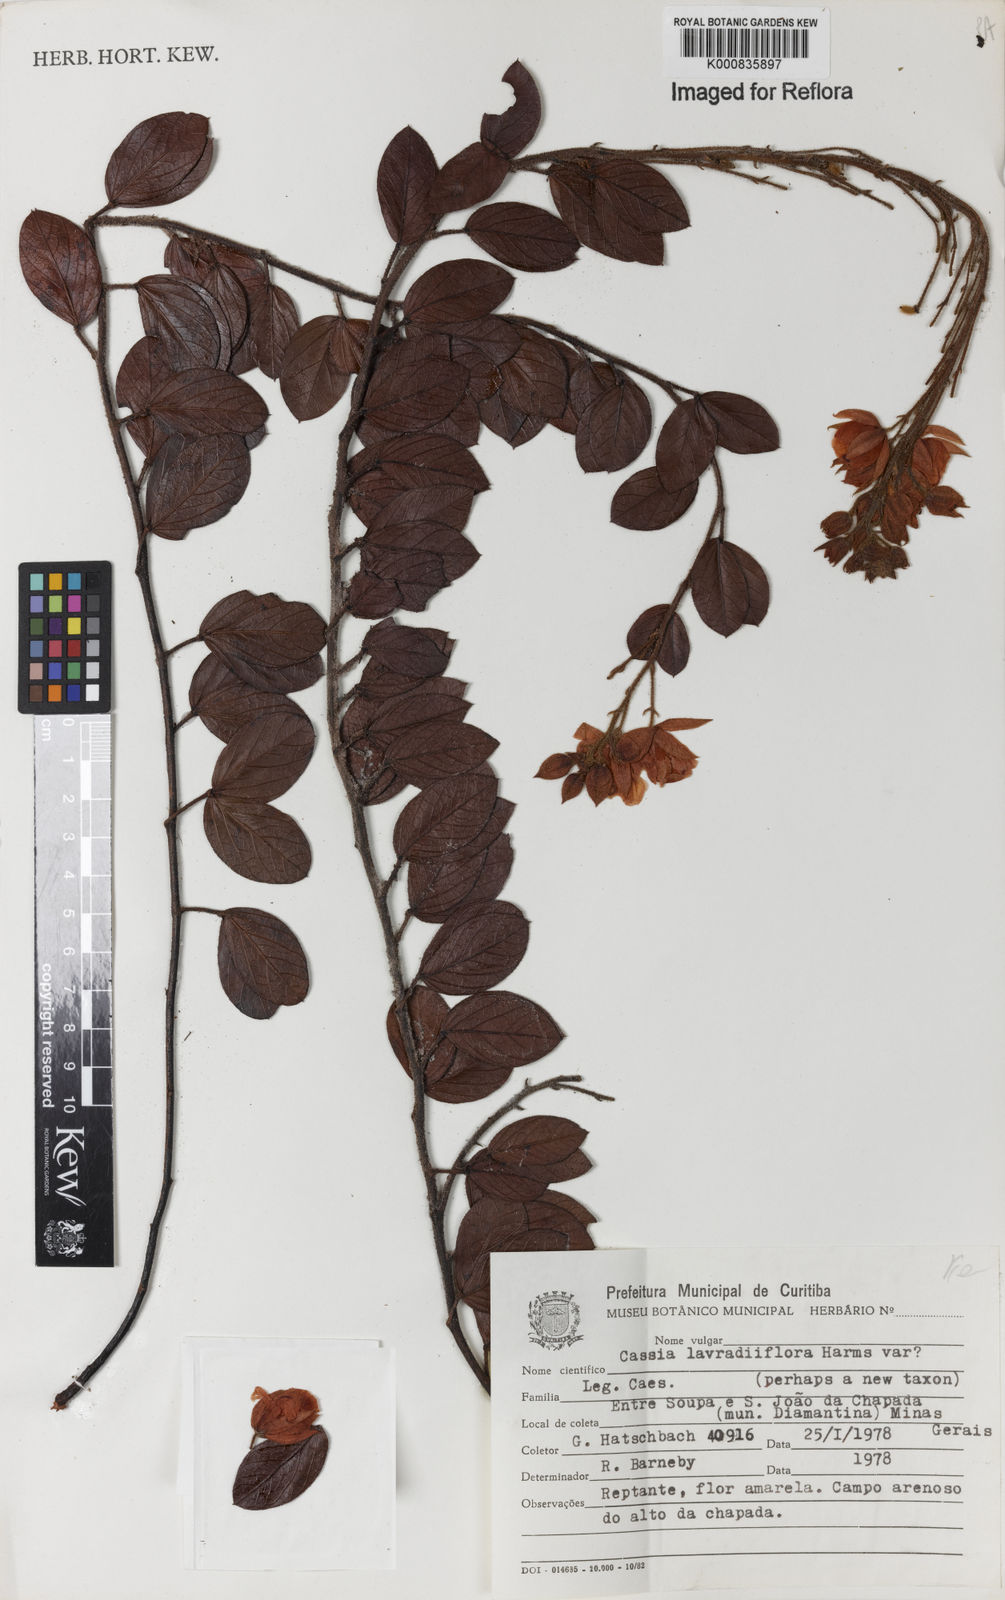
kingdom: Plantae
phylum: Tracheophyta
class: Magnoliopsida
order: Fabales
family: Fabaceae
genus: Chamaecrista
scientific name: Chamaecrista lavradiiflora
